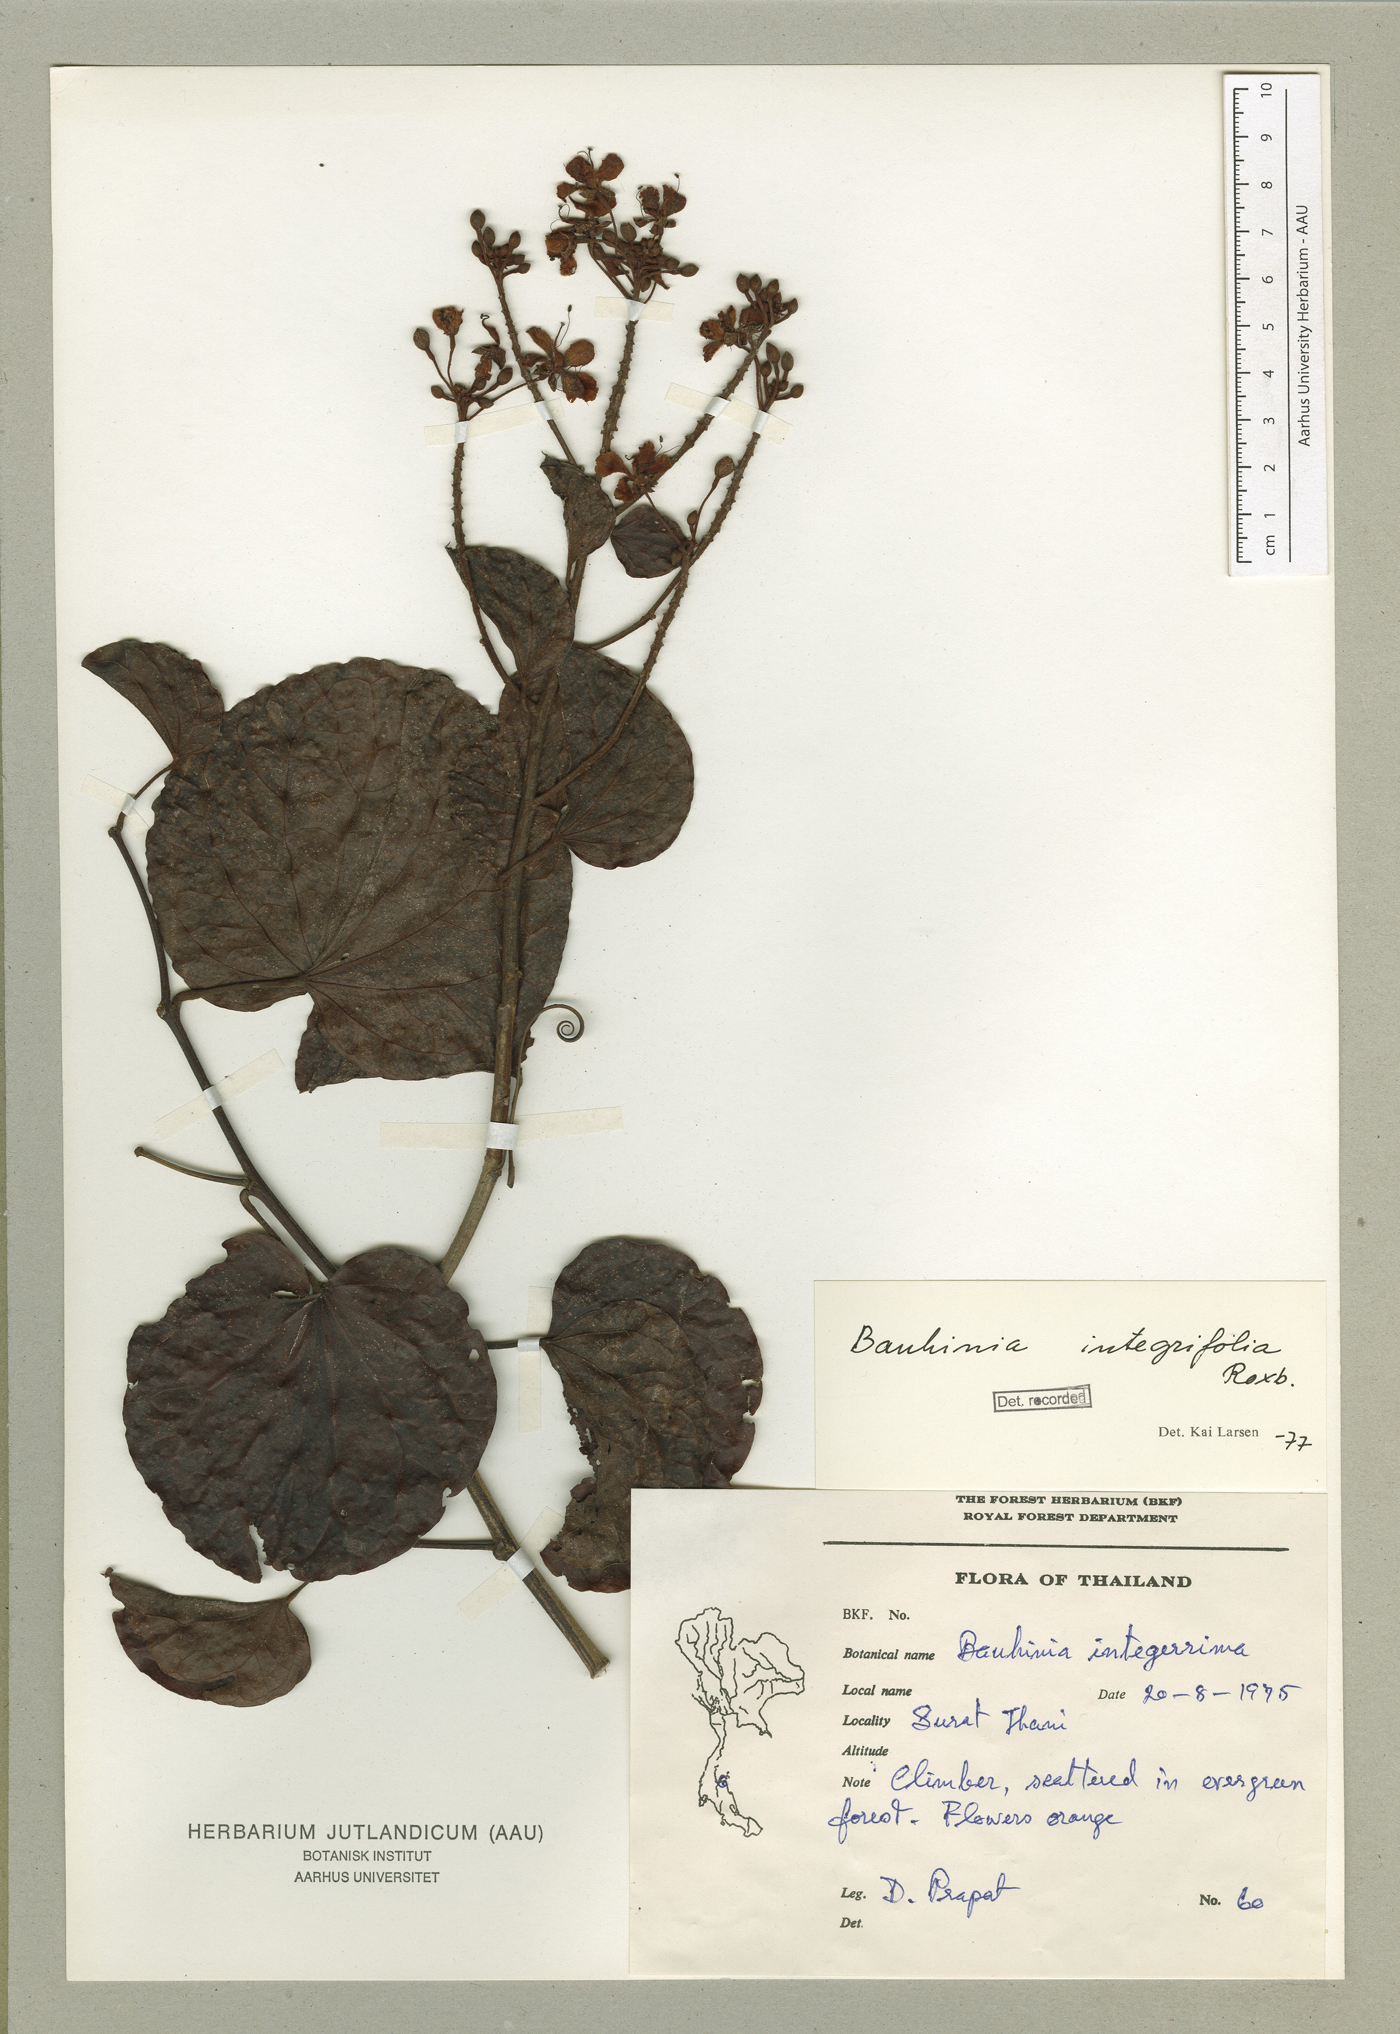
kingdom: Plantae
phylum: Tracheophyta
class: Magnoliopsida
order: Fabales
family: Fabaceae
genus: Phanera
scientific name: Phanera integrifolia
